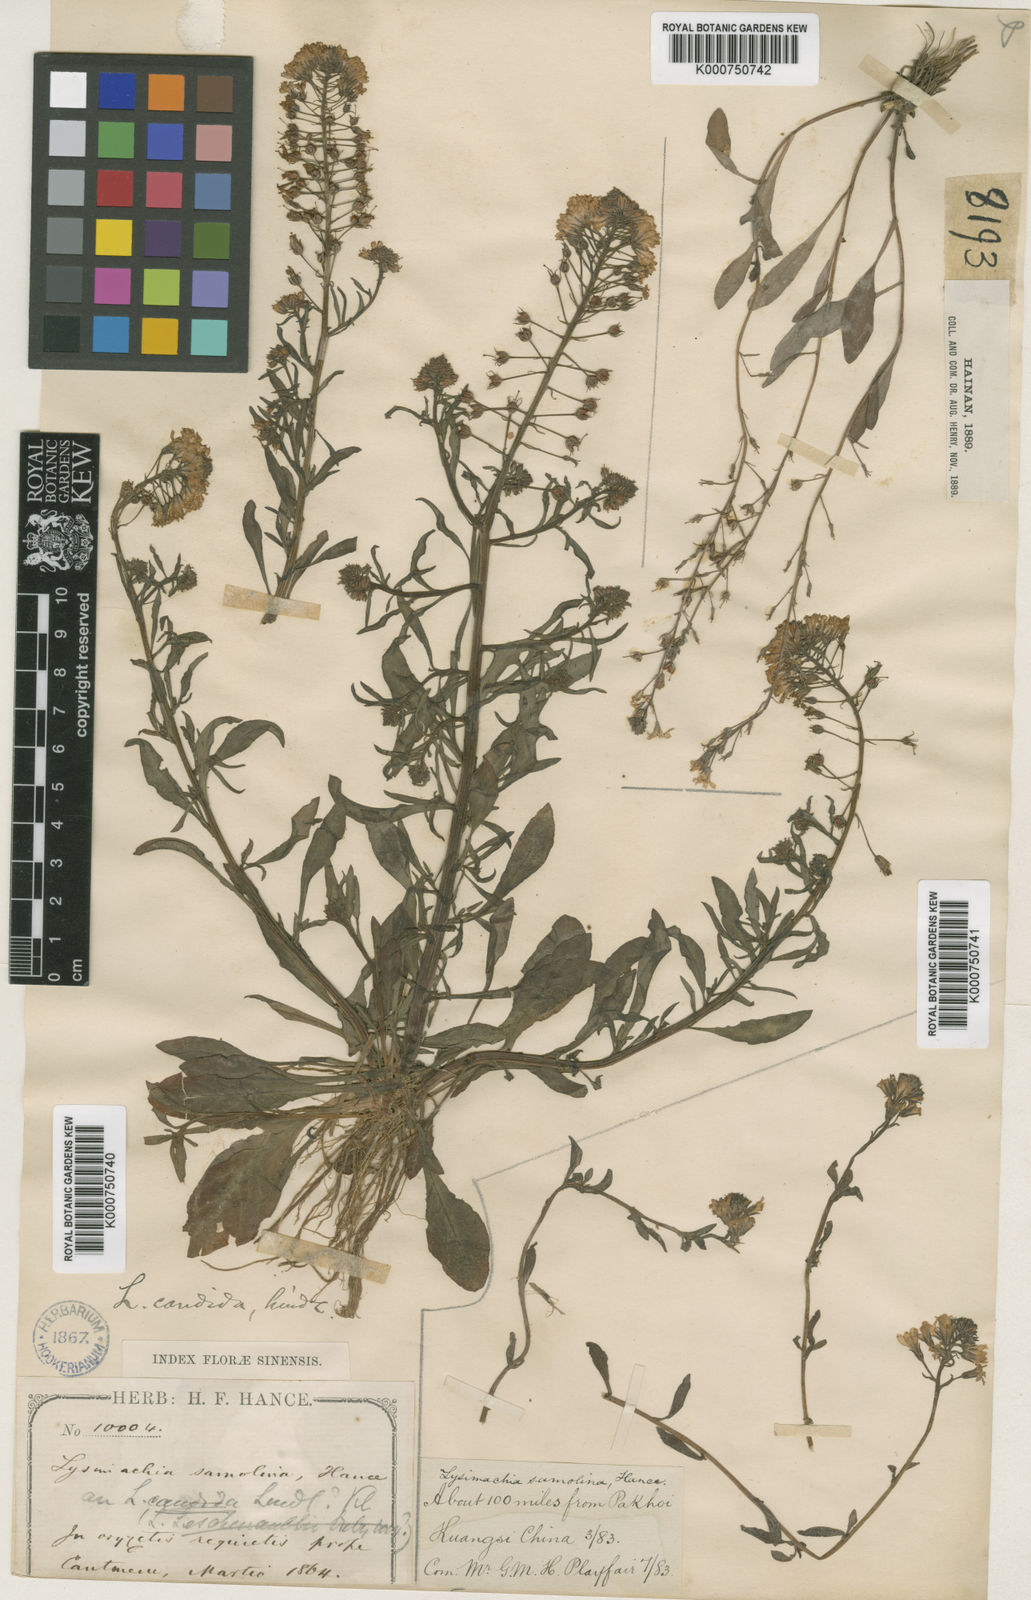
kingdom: Plantae
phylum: Tracheophyta
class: Magnoliopsida
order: Ericales
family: Primulaceae
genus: Lysimachia
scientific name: Lysimachia candida
